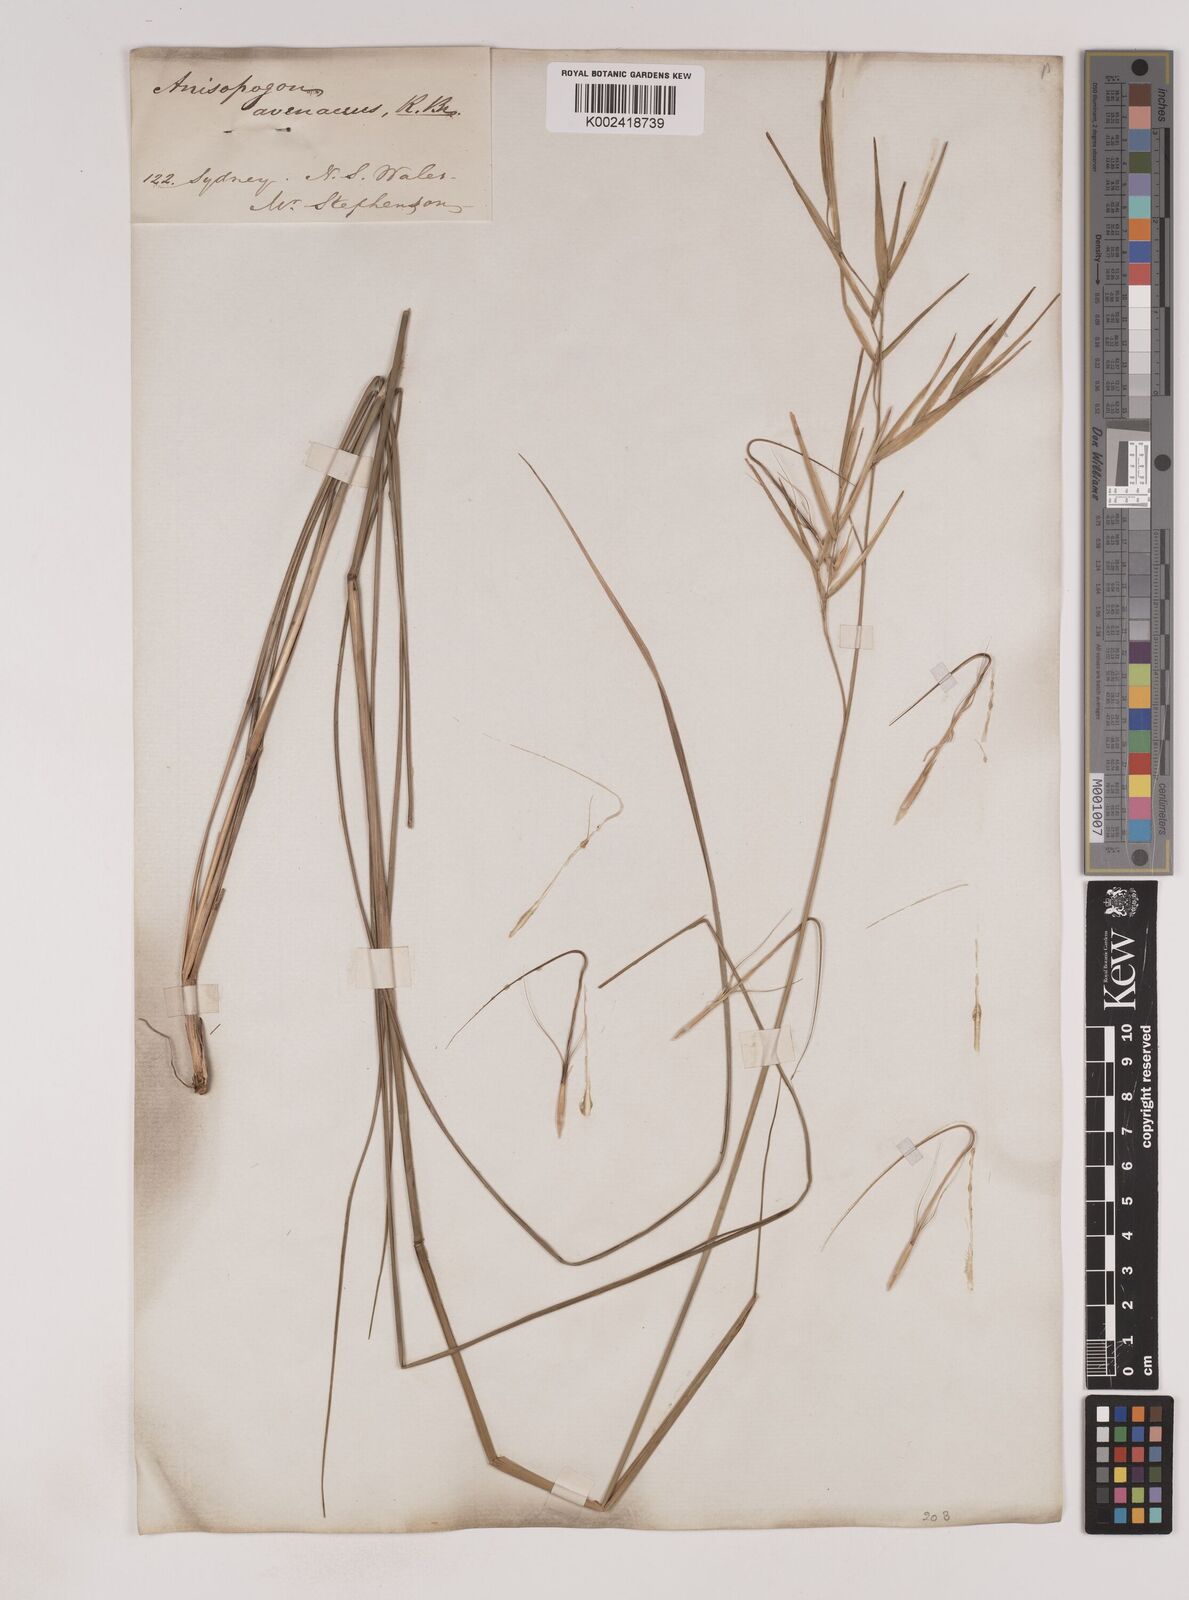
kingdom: Plantae
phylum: Tracheophyta
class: Liliopsida
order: Poales
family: Poaceae
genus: Anisopogon
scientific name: Anisopogon avenaceus
